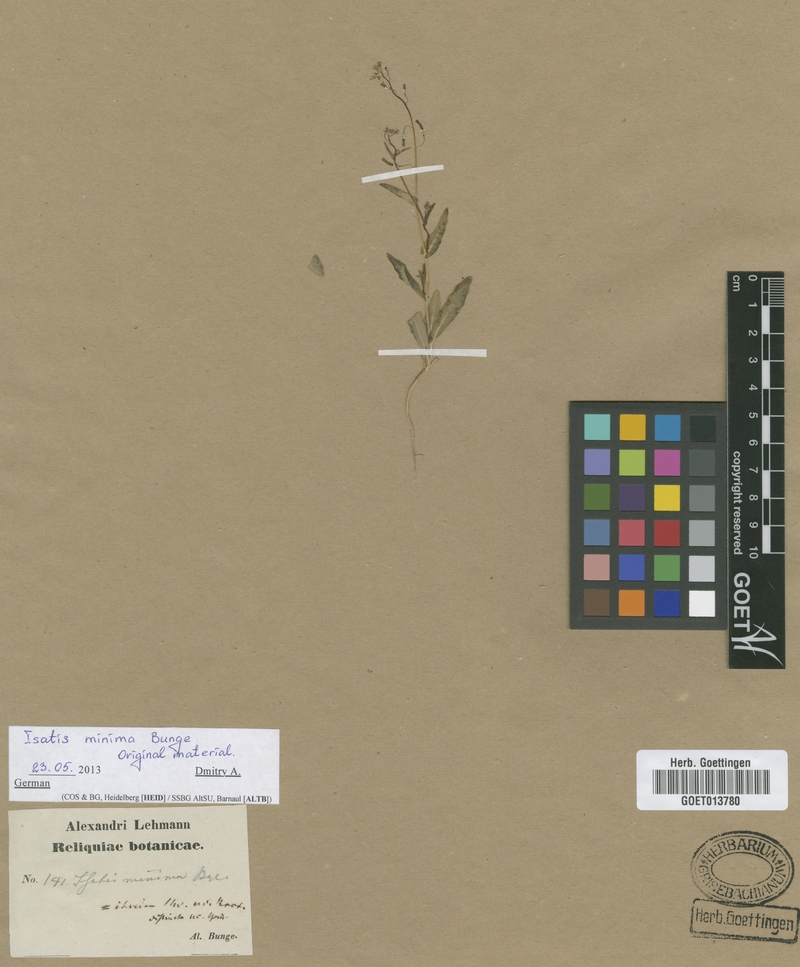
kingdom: Plantae
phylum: Tracheophyta
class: Magnoliopsida
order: Brassicales
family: Brassicaceae
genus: Isatis
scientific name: Isatis minima
